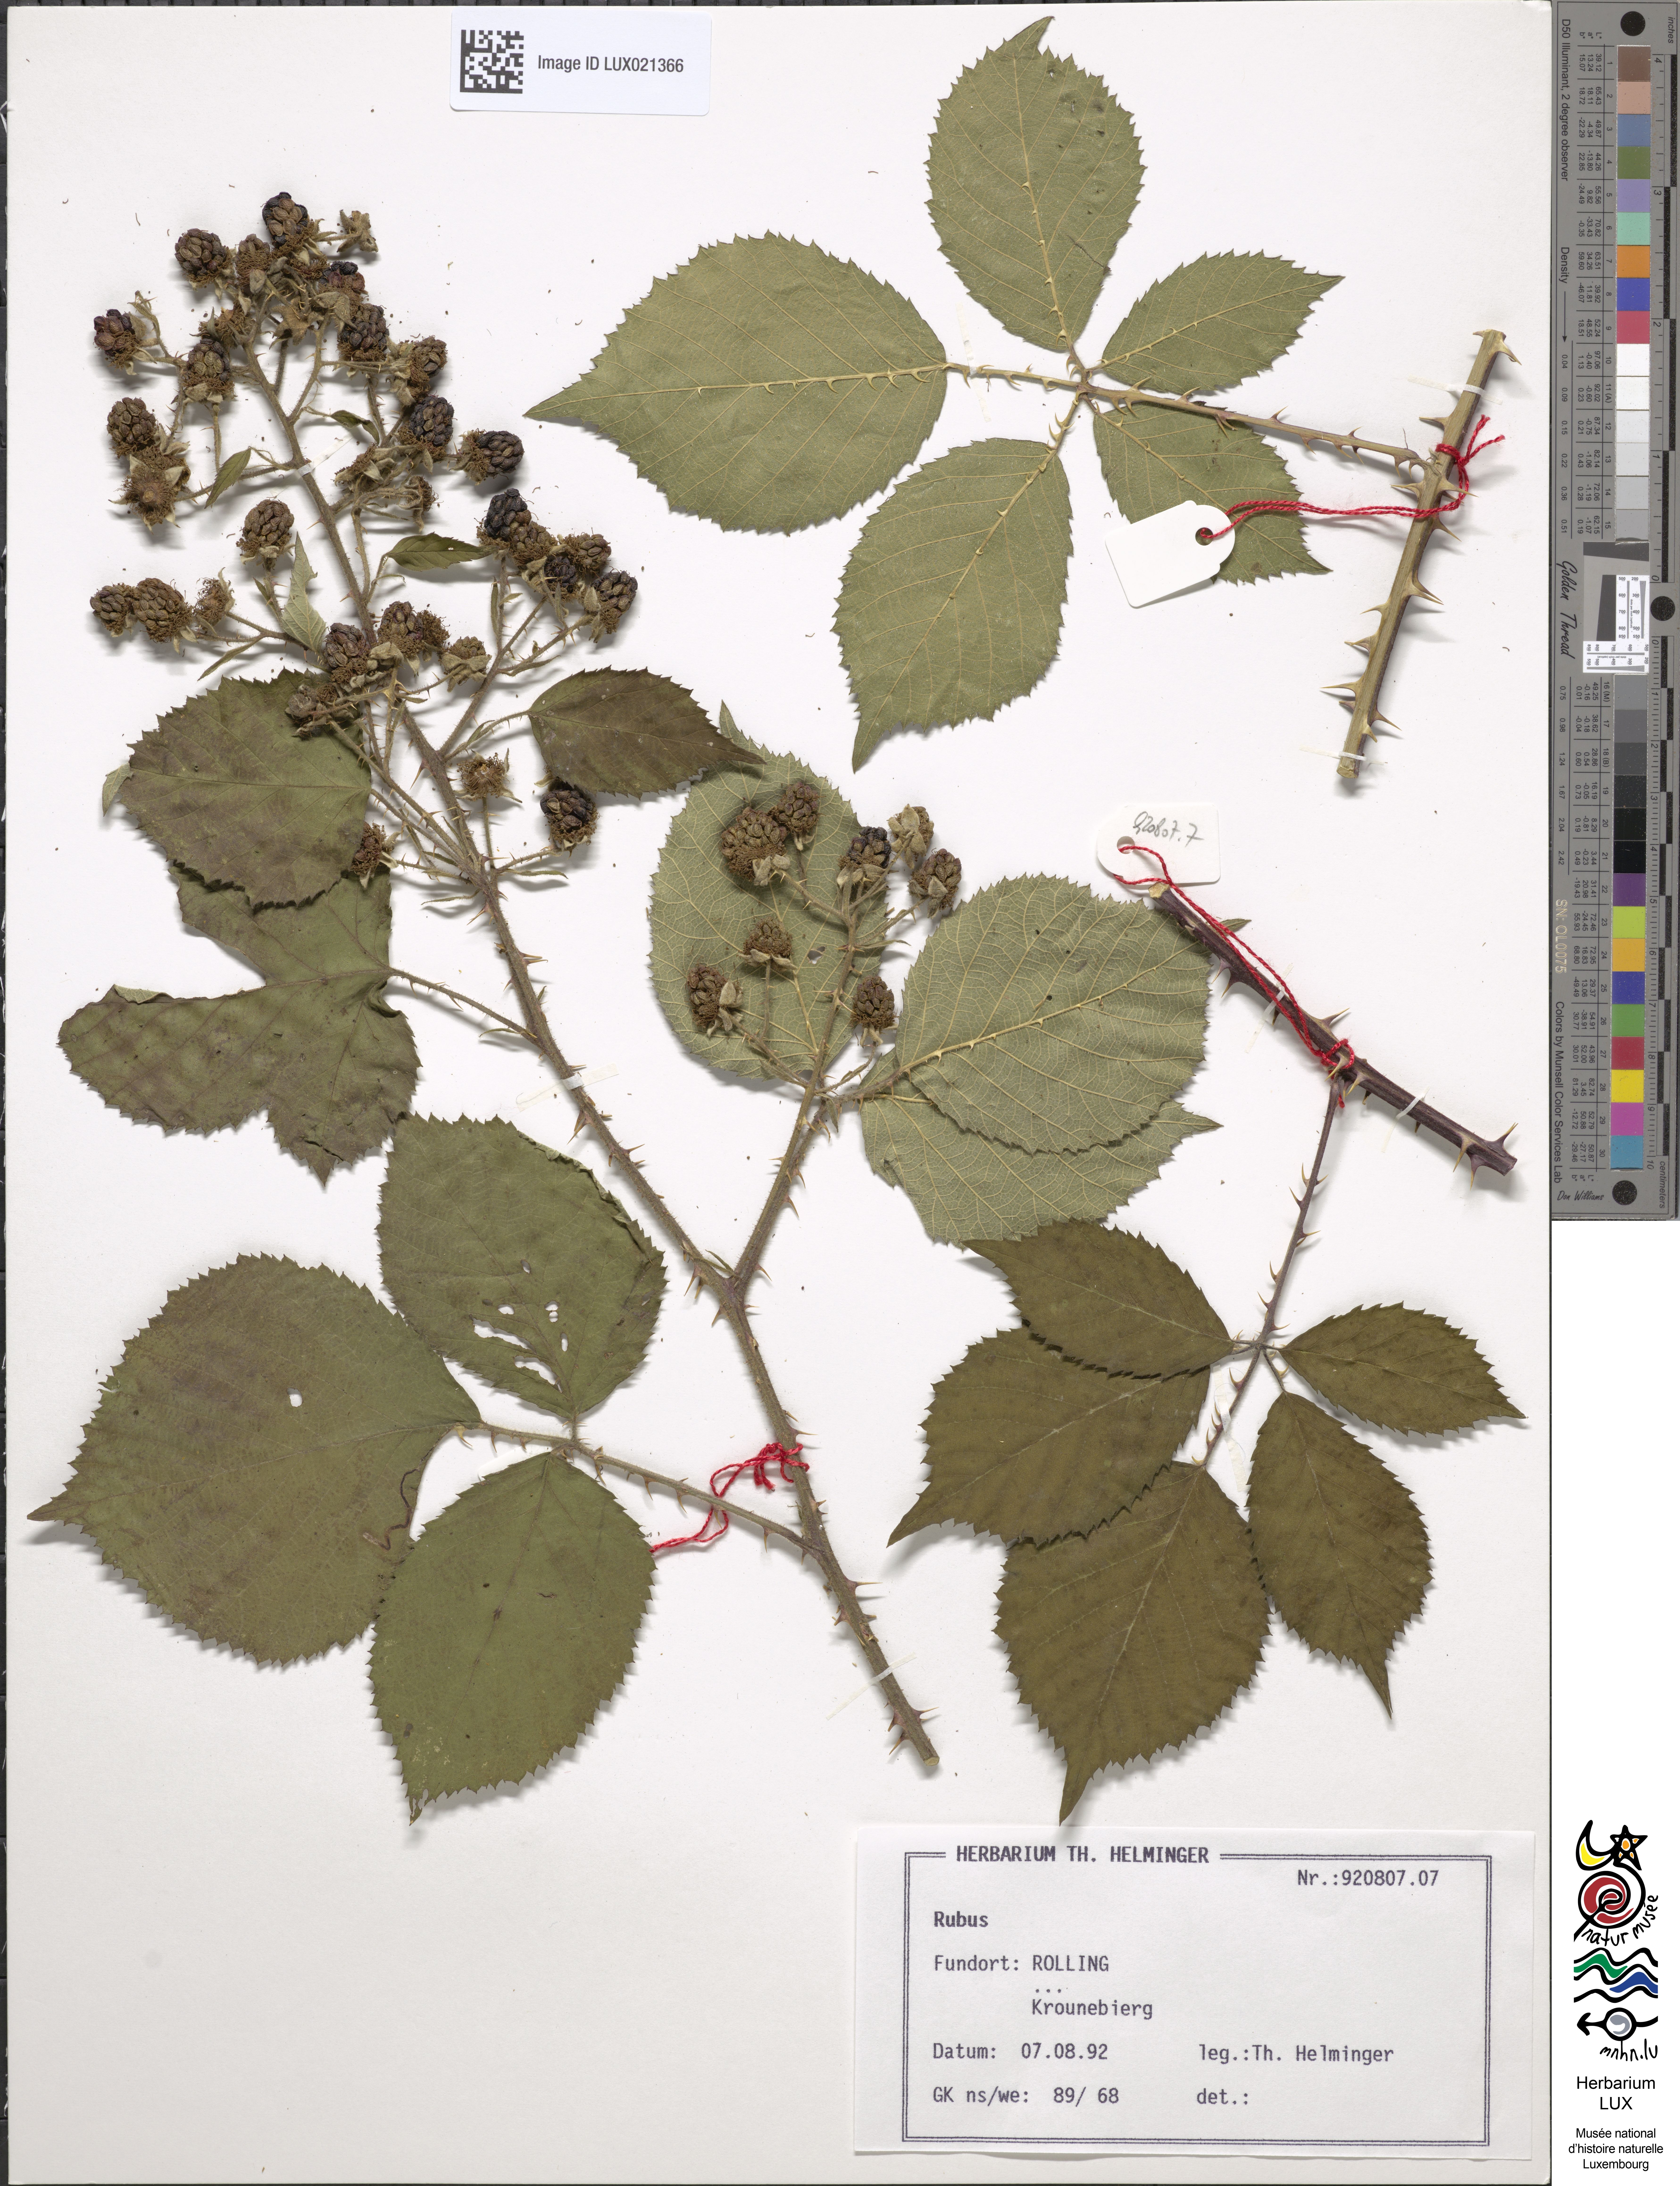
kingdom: Plantae
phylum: Tracheophyta
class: Magnoliopsida
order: Rosales
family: Rosaceae
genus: Rubus
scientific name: Rubus
